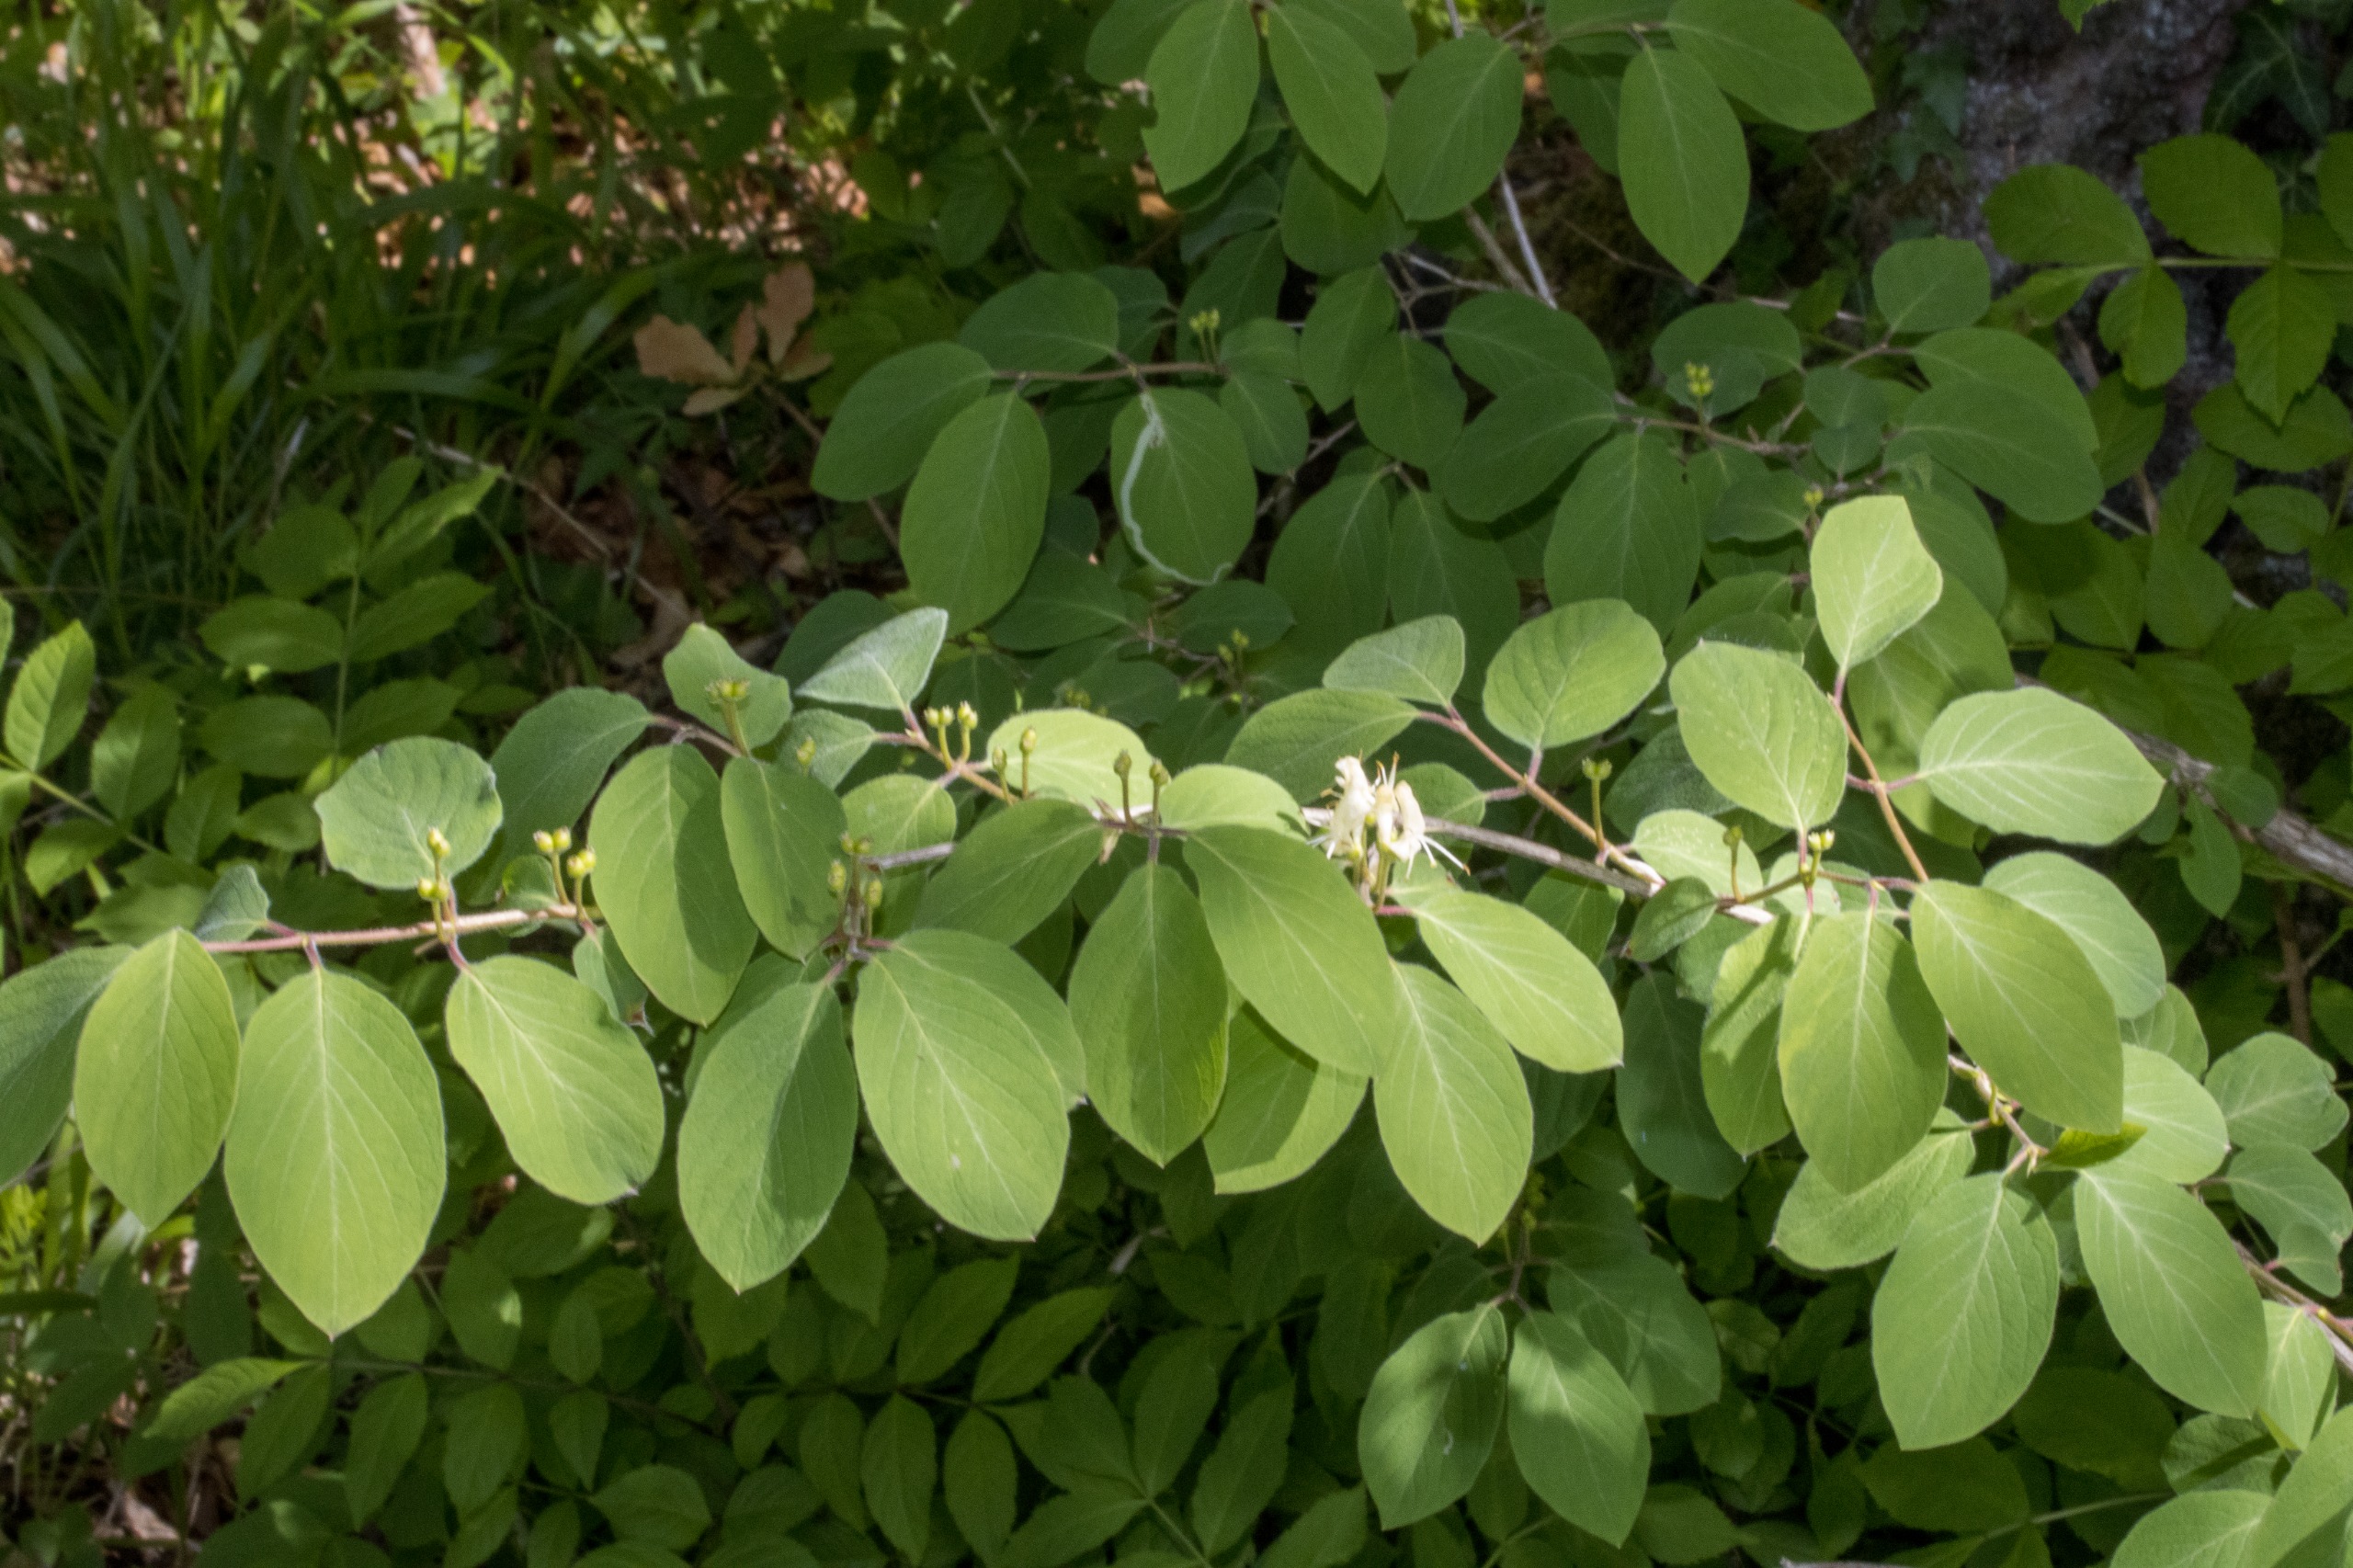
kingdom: Plantae
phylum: Tracheophyta
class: Magnoliopsida
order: Dipsacales
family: Caprifoliaceae
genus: Lonicera
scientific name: Lonicera xylosteum
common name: Dunet gedeblad
